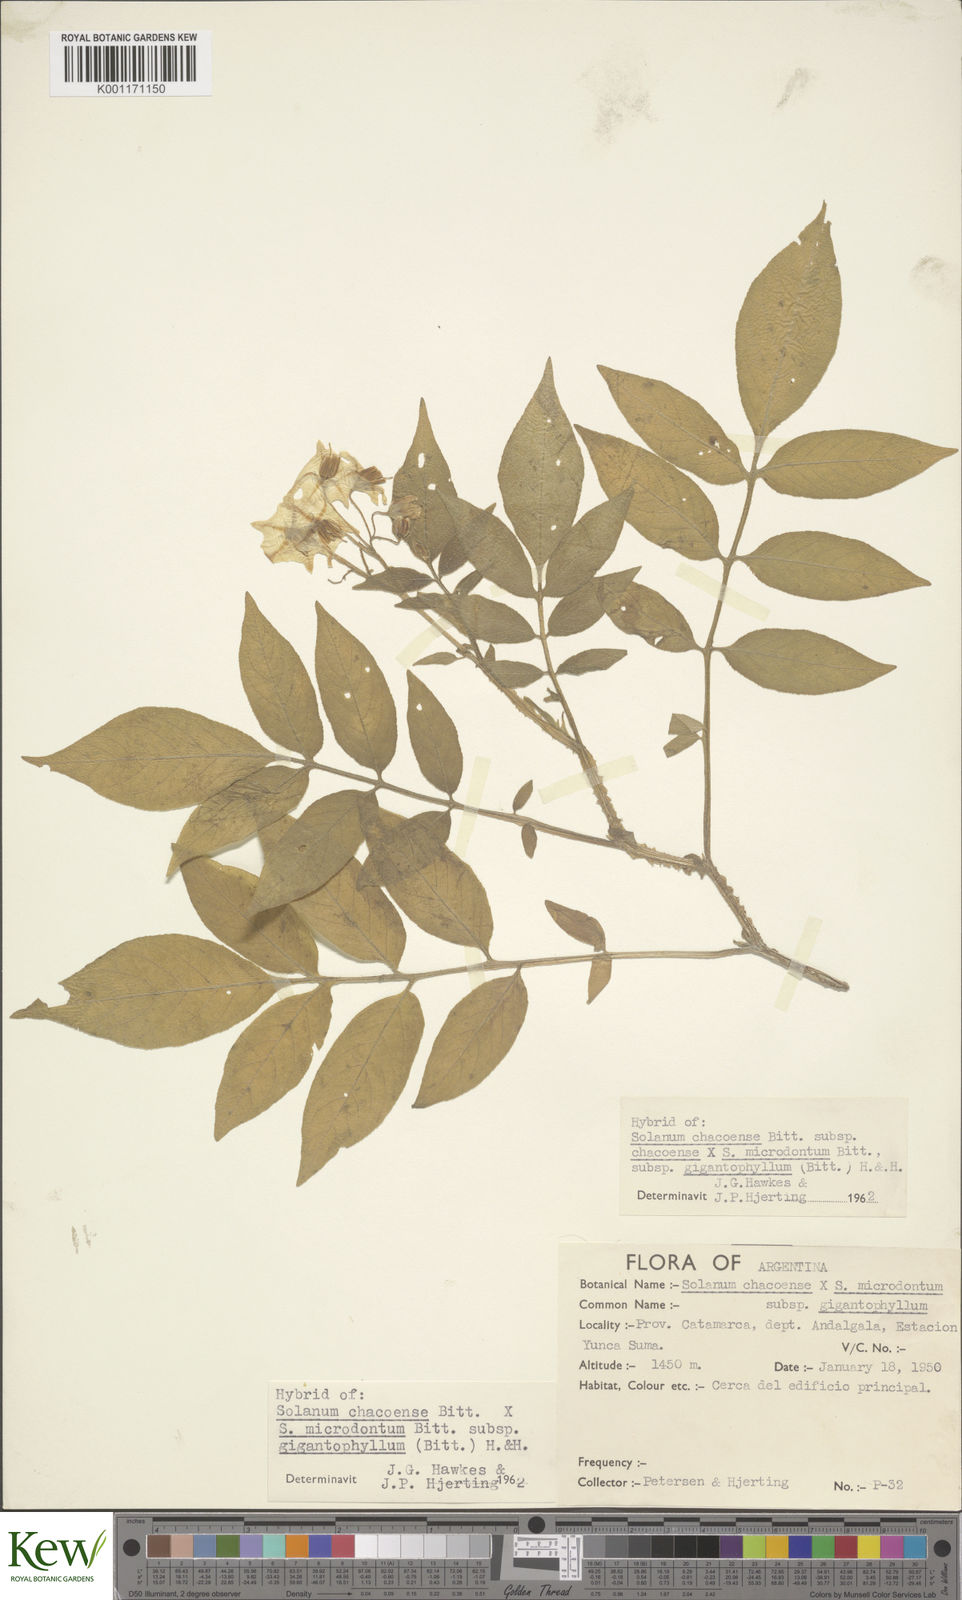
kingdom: Plantae
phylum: Tracheophyta
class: Magnoliopsida
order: Solanales
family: Solanaceae
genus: Solanum
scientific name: Solanum microdontum
